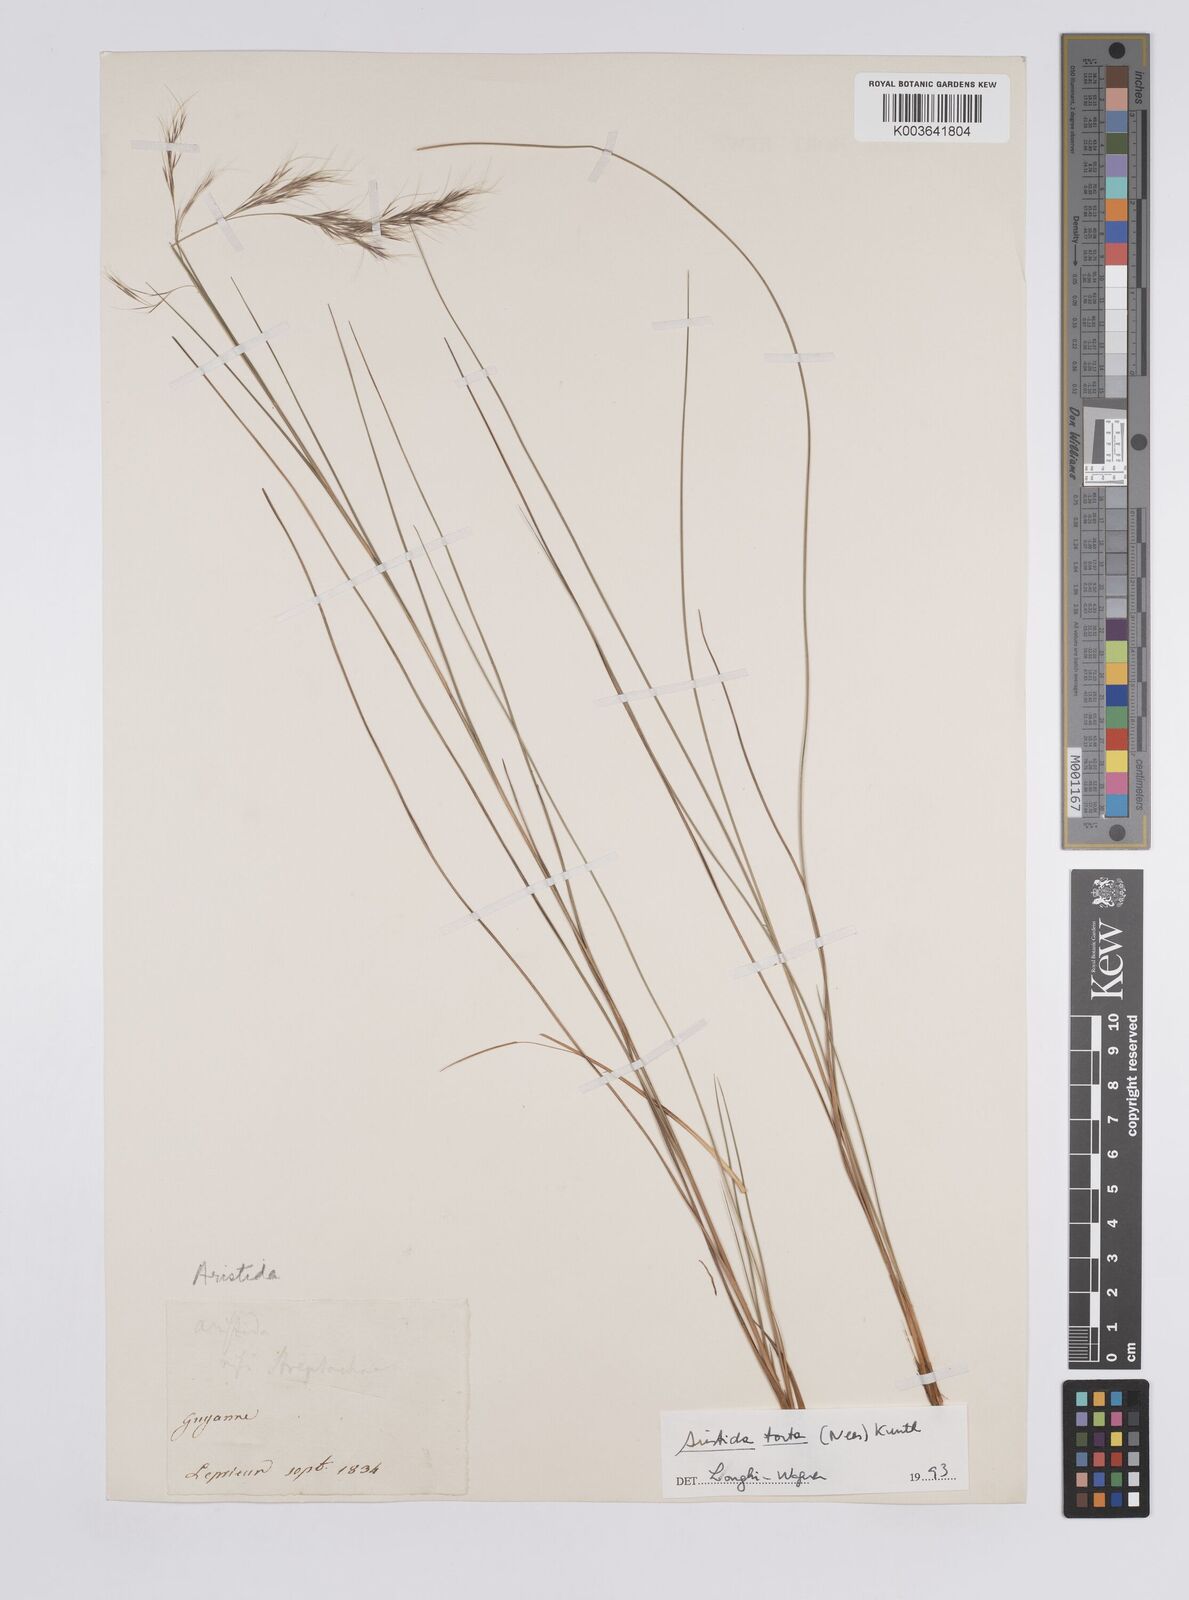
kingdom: Plantae
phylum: Tracheophyta
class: Liliopsida
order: Poales
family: Poaceae
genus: Aristida
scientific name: Aristida torta
